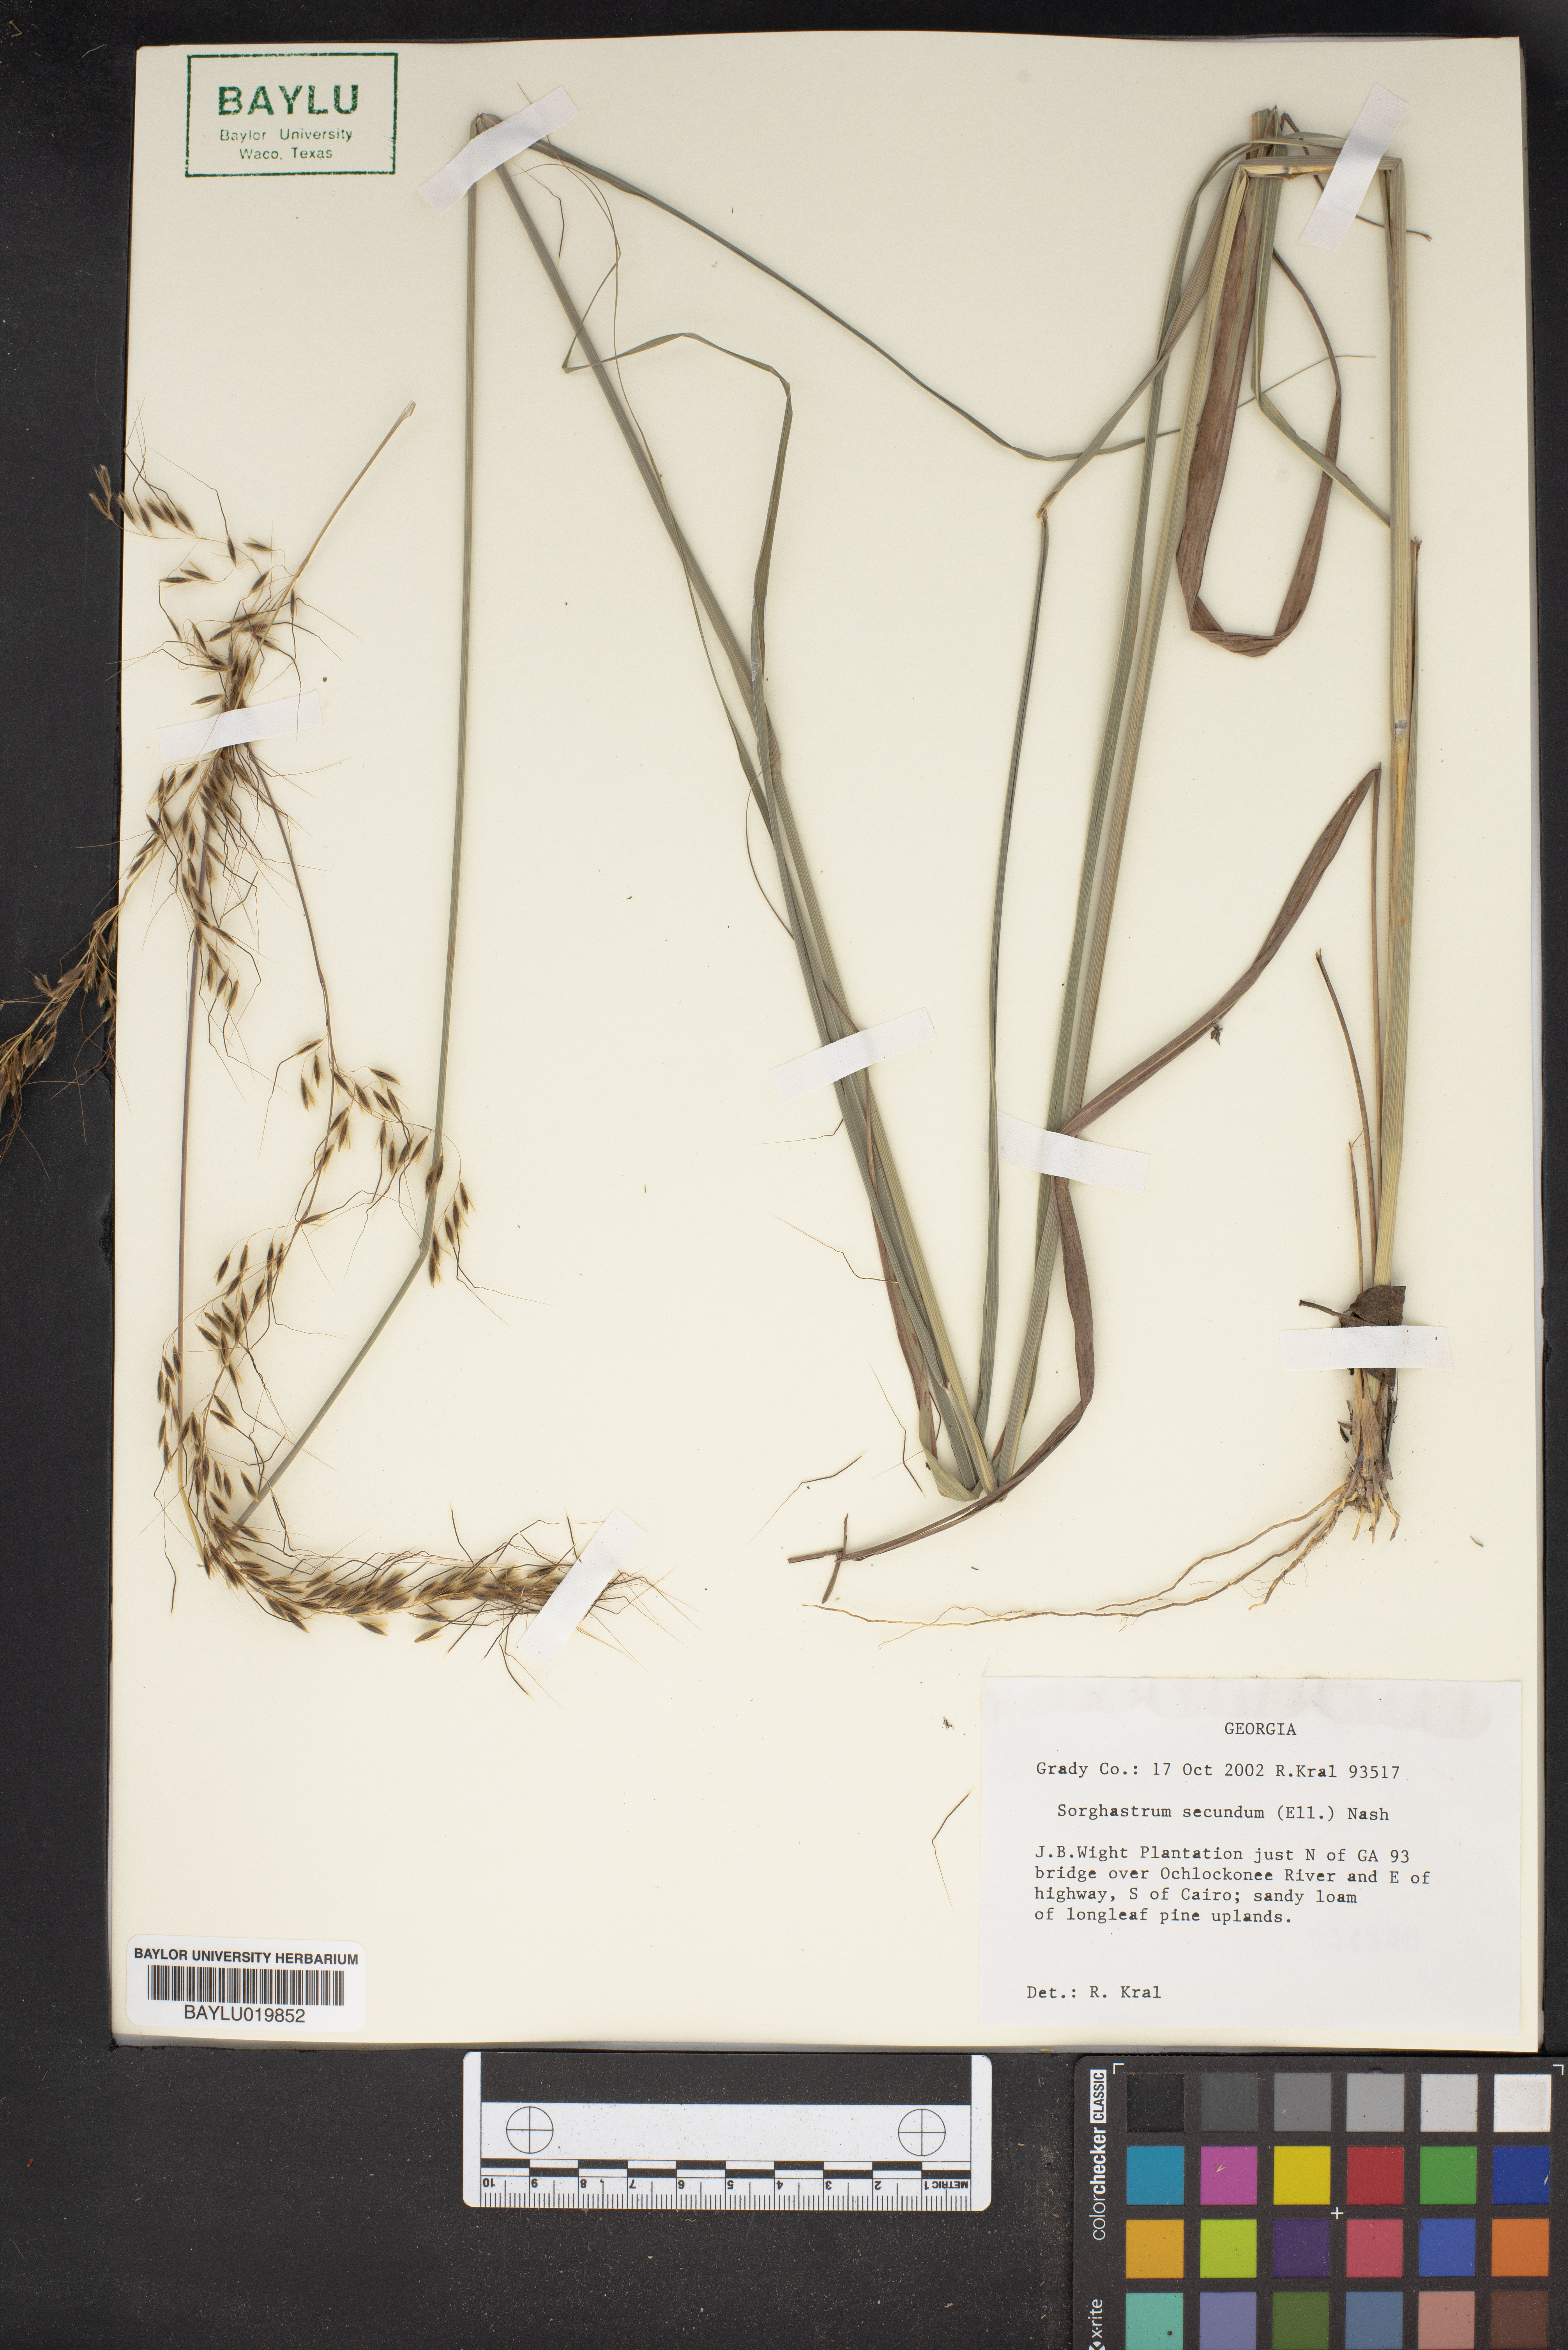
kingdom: Plantae
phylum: Tracheophyta
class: Liliopsida
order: Poales
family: Poaceae
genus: Sorghastrum
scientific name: Sorghastrum secundum
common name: Lopsided indian grass
